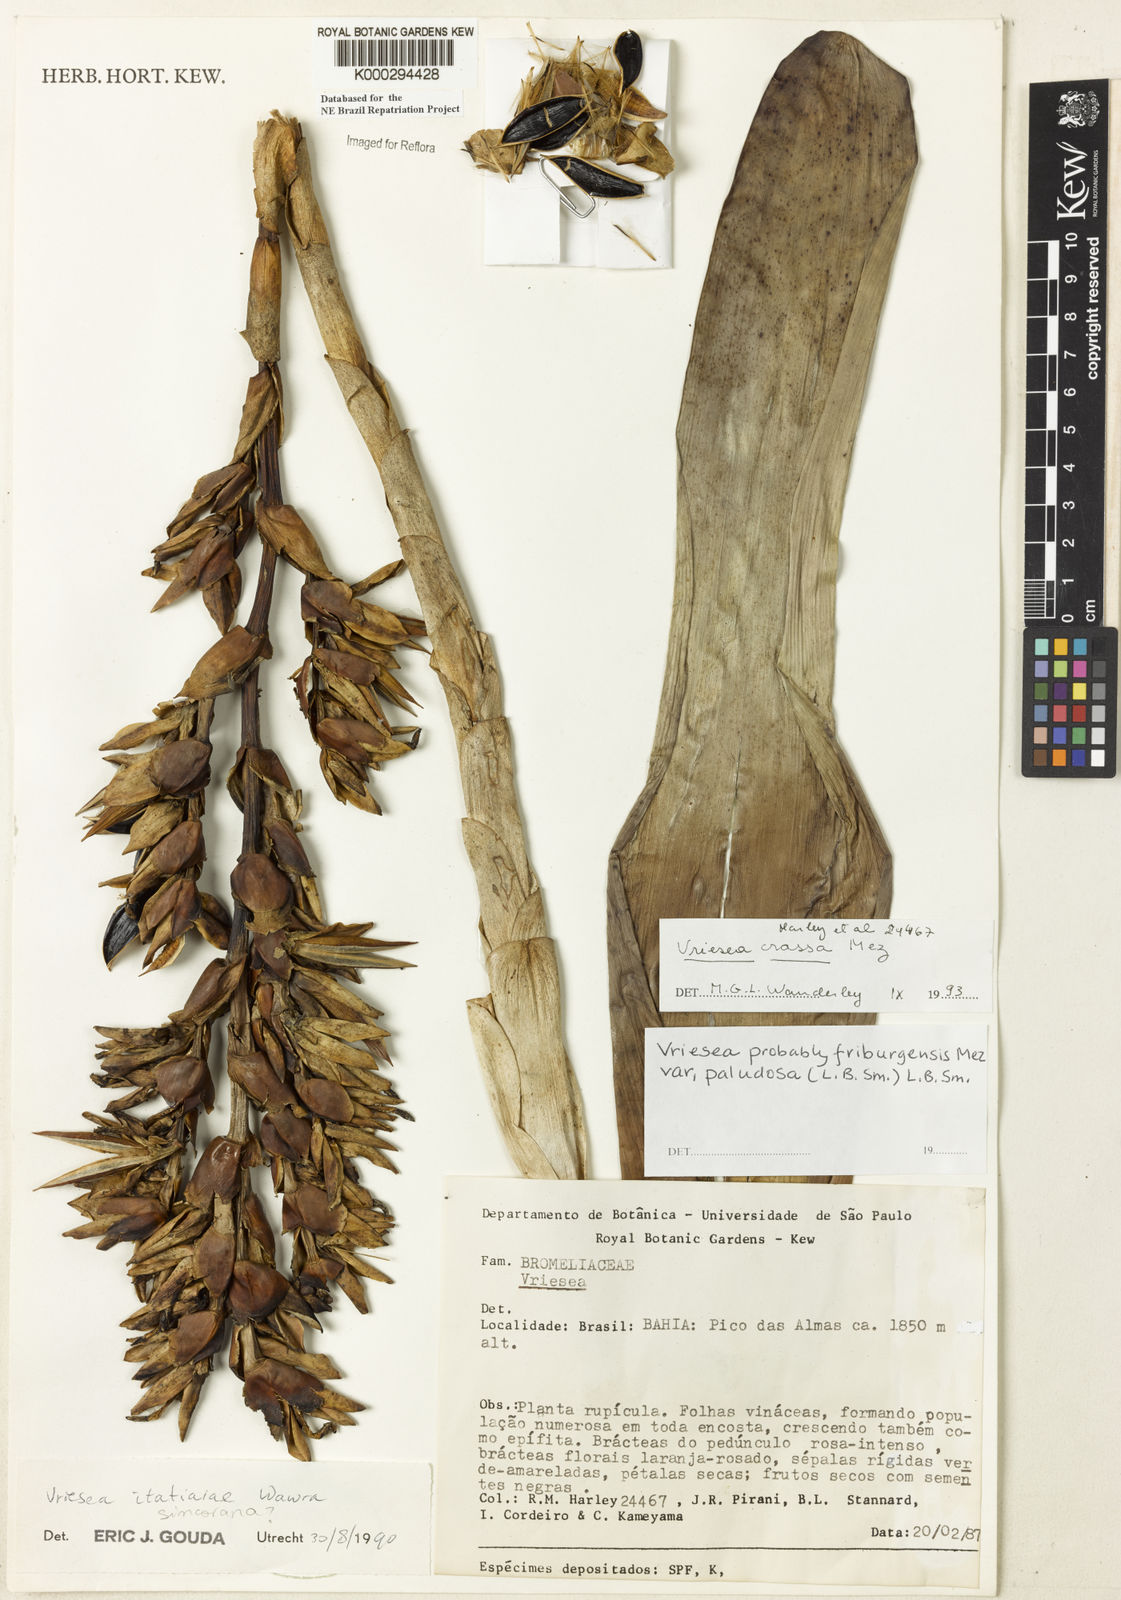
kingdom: Plantae
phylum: Tracheophyta
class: Liliopsida
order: Poales
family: Bromeliaceae
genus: Vriesea
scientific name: Vriesea crassa
